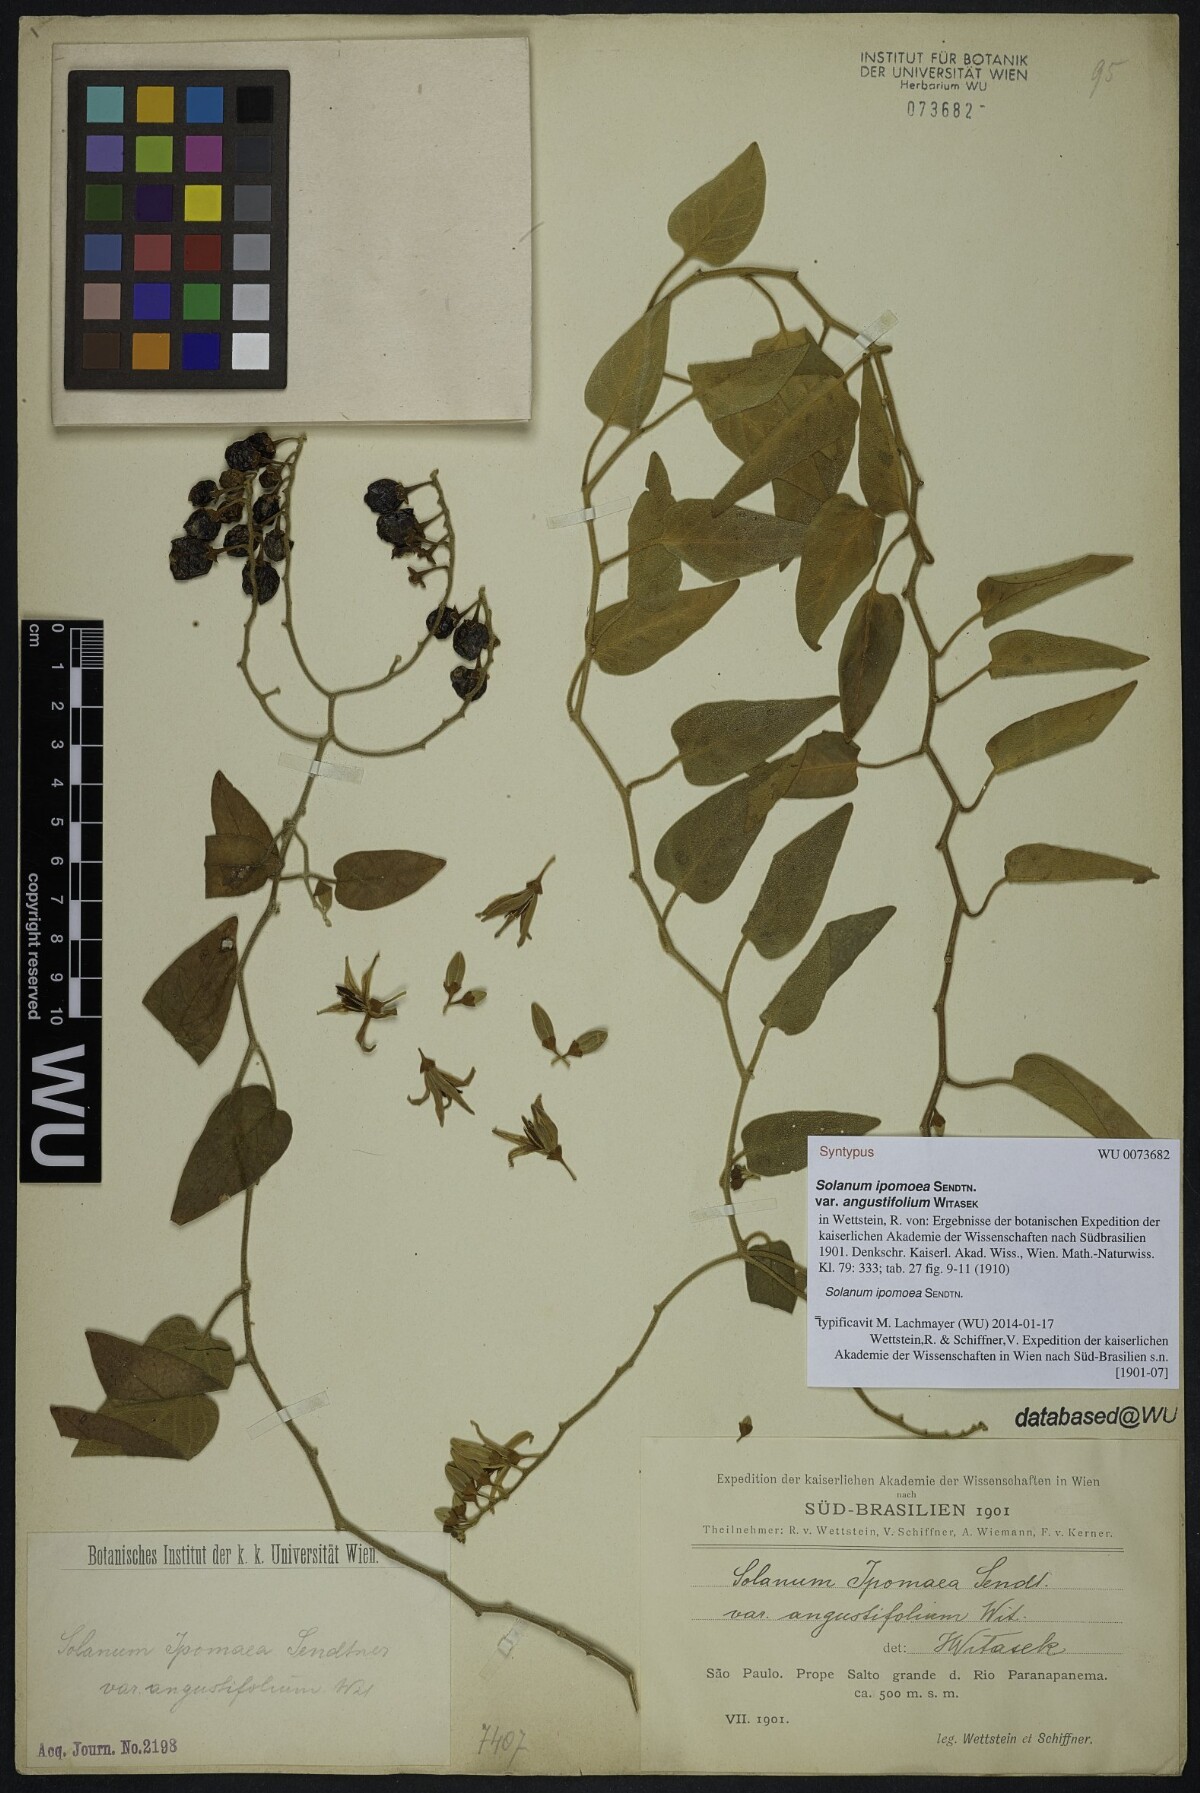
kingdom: Plantae
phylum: Tracheophyta
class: Magnoliopsida
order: Solanales
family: Solanaceae
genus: Solanum
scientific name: Solanum uncinellum
